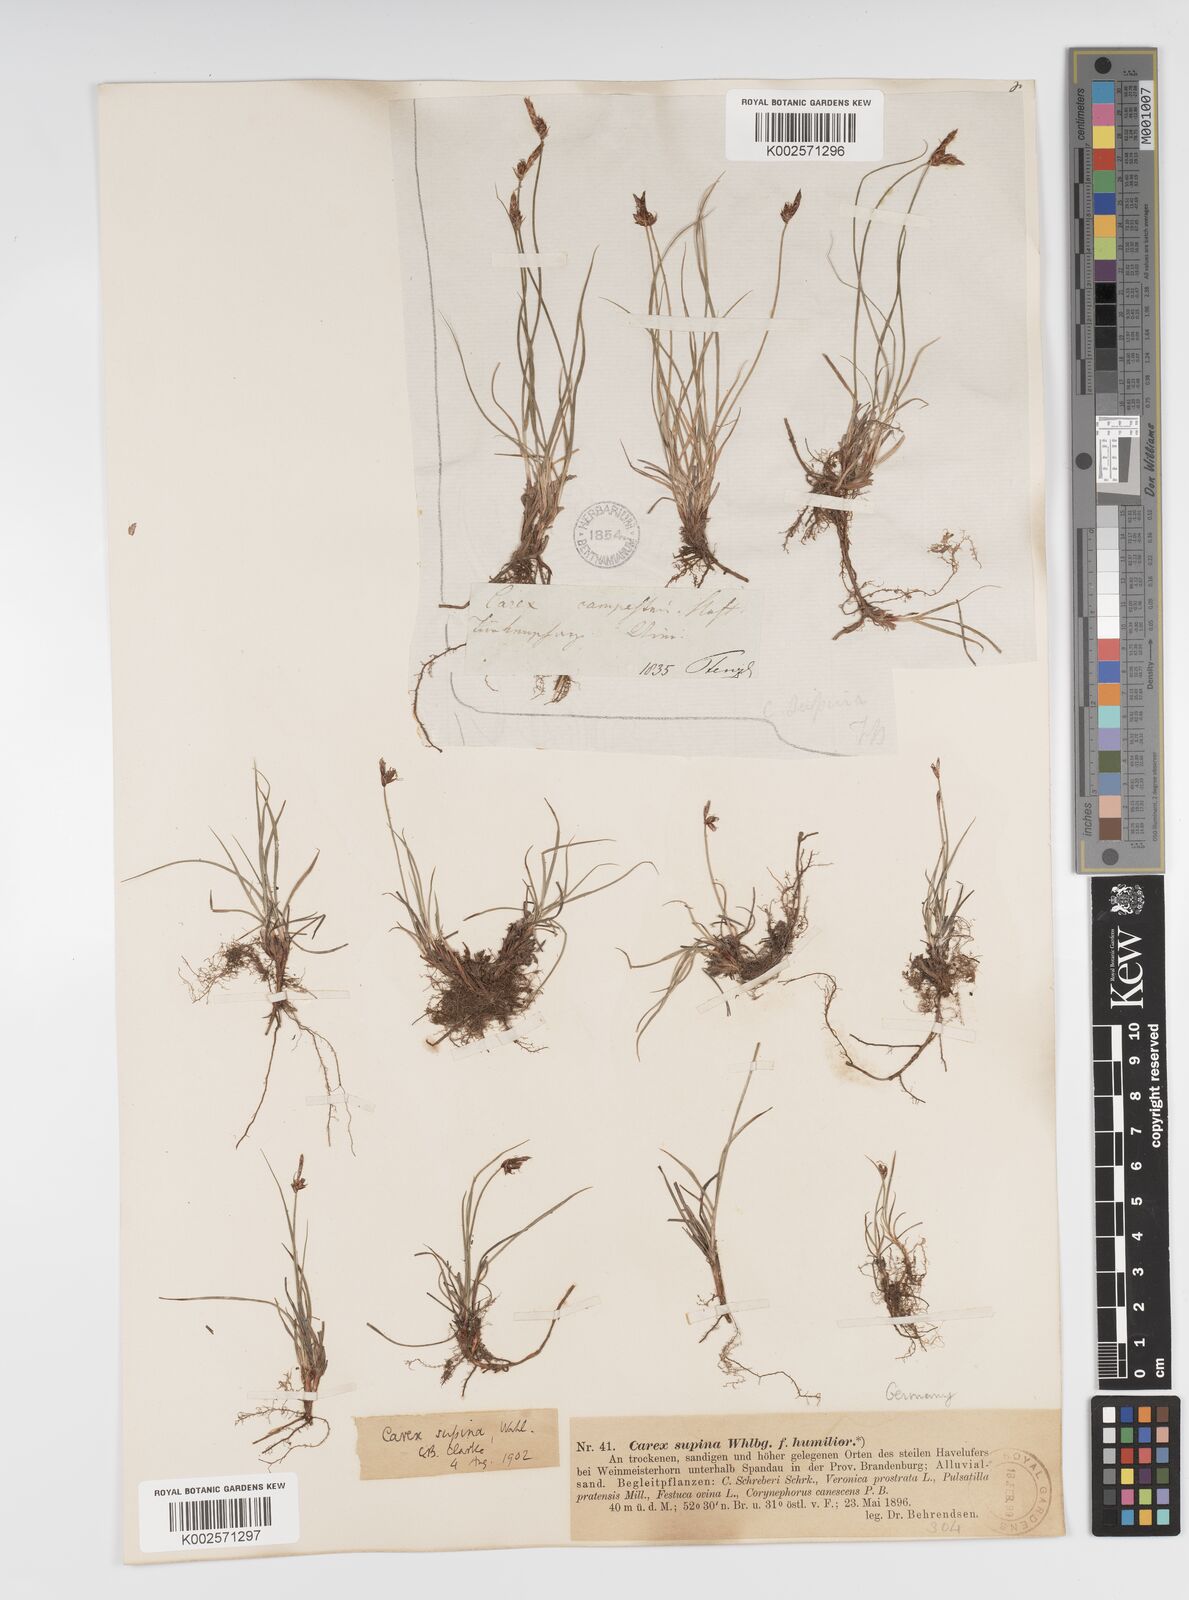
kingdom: Plantae
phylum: Tracheophyta
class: Liliopsida
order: Poales
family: Cyperaceae
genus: Carex
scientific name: Carex supina
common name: Lying-back sedge
